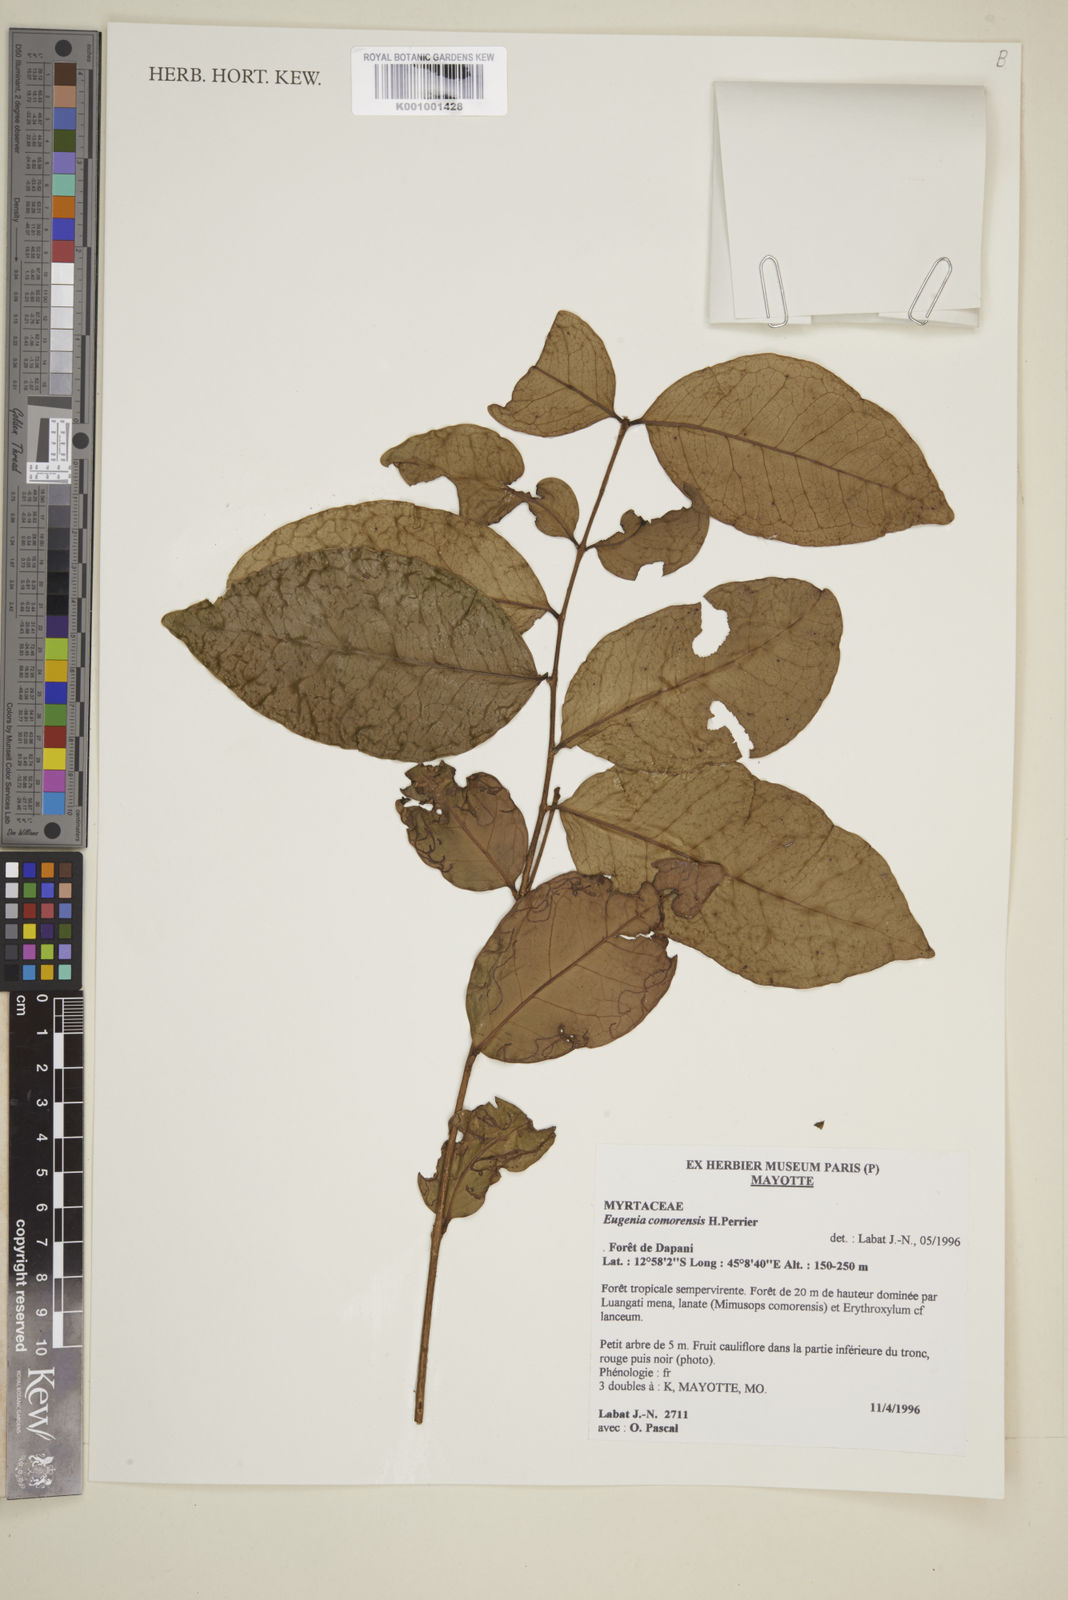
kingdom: Plantae
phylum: Tracheophyta
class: Magnoliopsida
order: Myrtales
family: Myrtaceae
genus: Eugenia
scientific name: Eugenia comorensis
